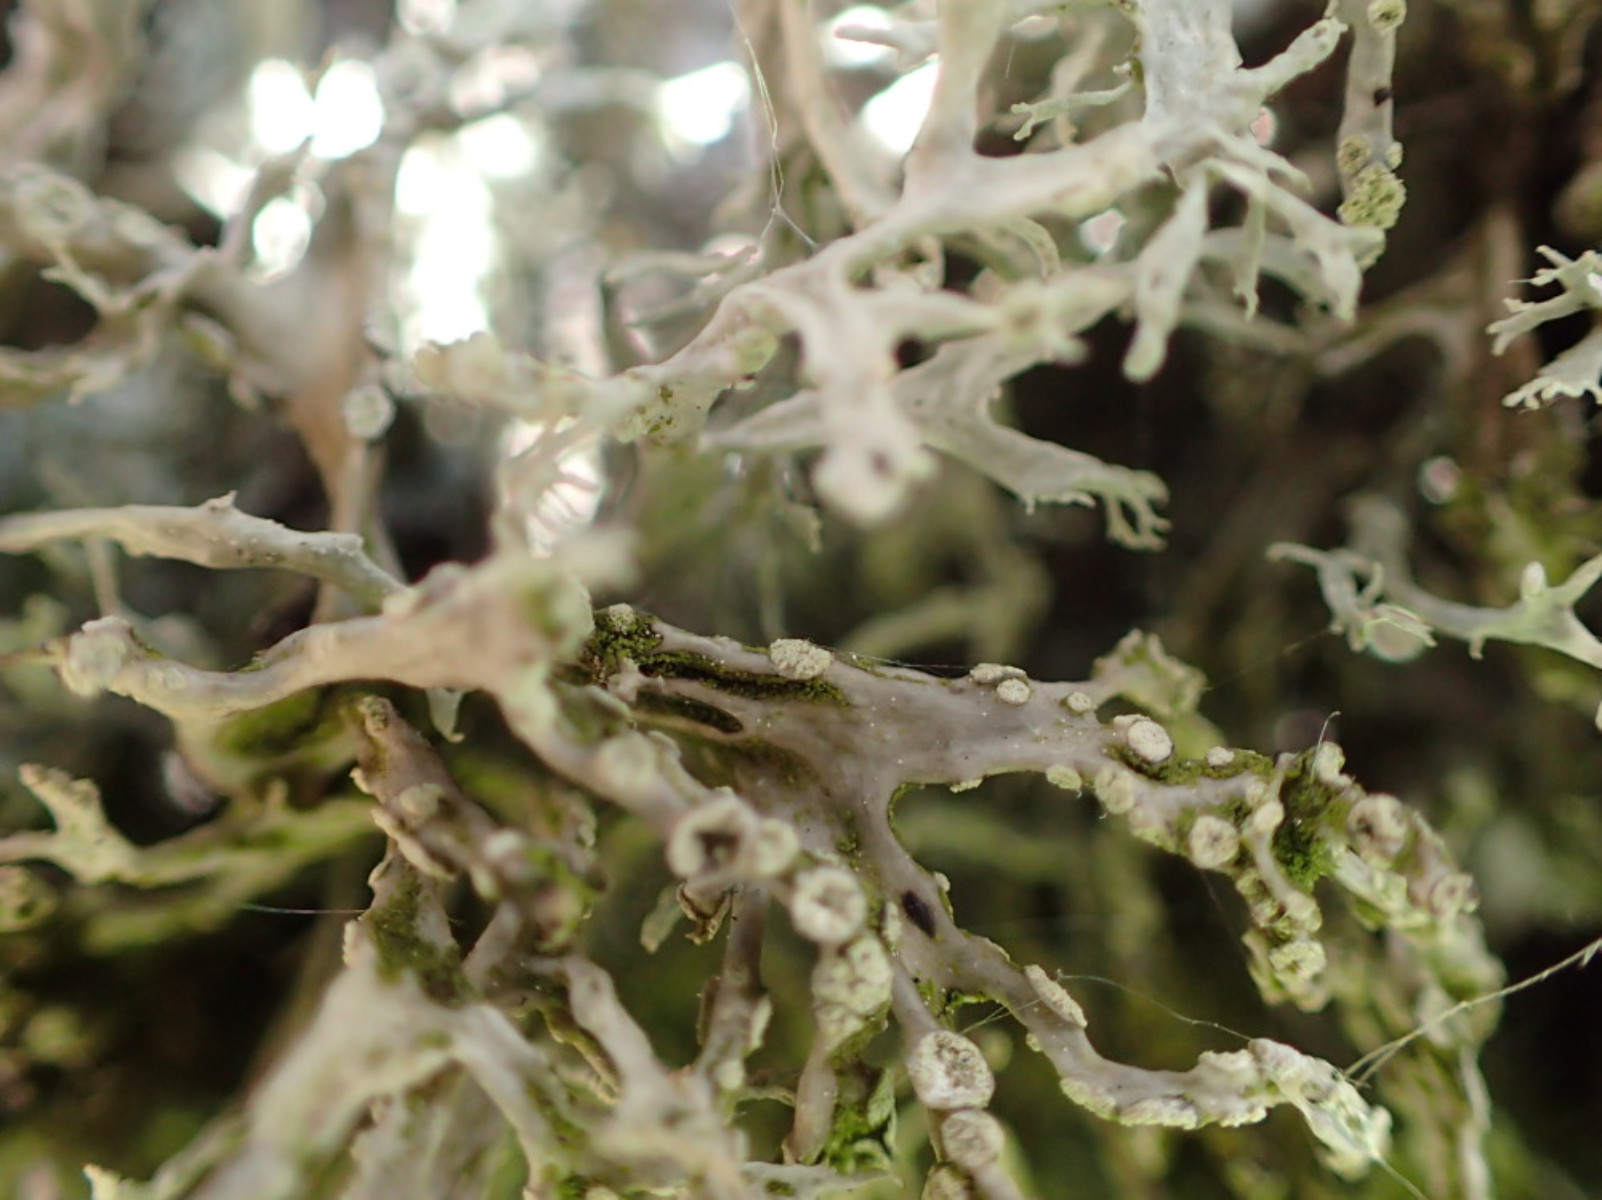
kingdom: Fungi
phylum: Ascomycota
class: Lecanoromycetes
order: Lecanorales
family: Ramalinaceae
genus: Ramalina
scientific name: Ramalina farinacea
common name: melet grenlav
